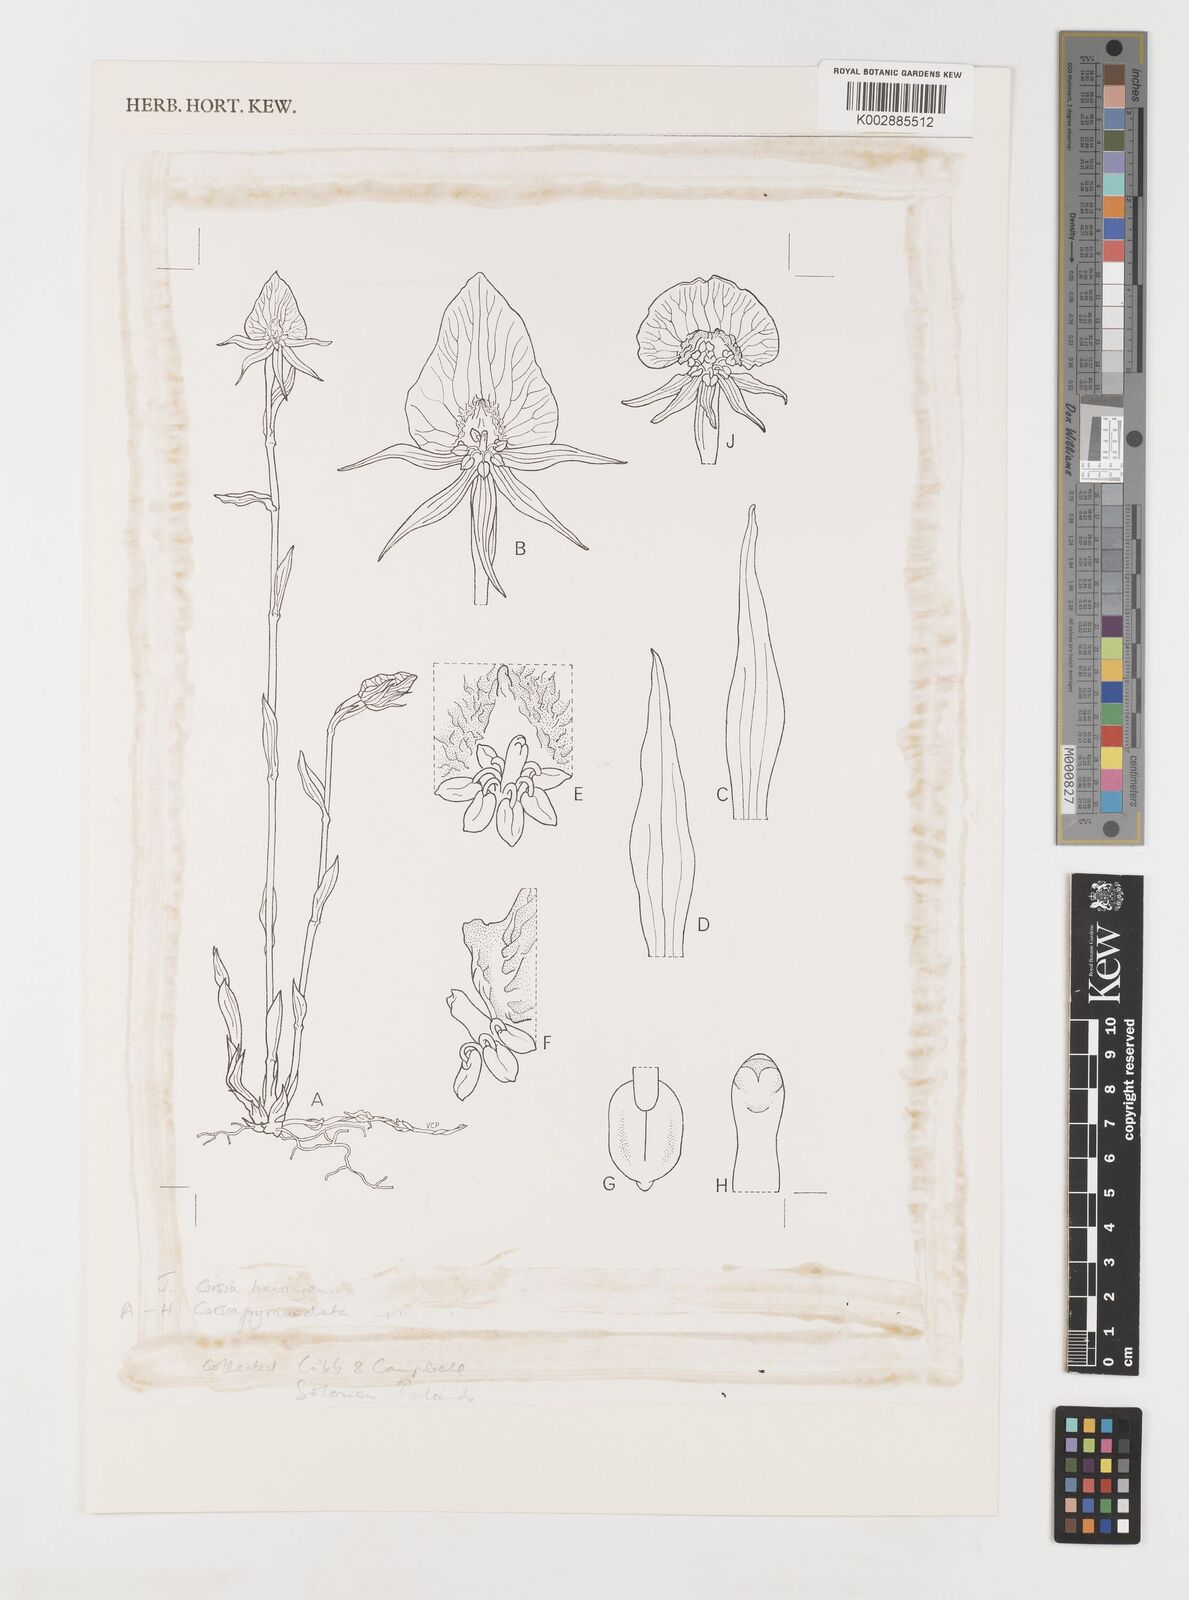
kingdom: Plantae
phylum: Tracheophyta
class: Liliopsida
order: Liliales
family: Corsiaceae
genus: Corsia
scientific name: Corsia haianjensis
